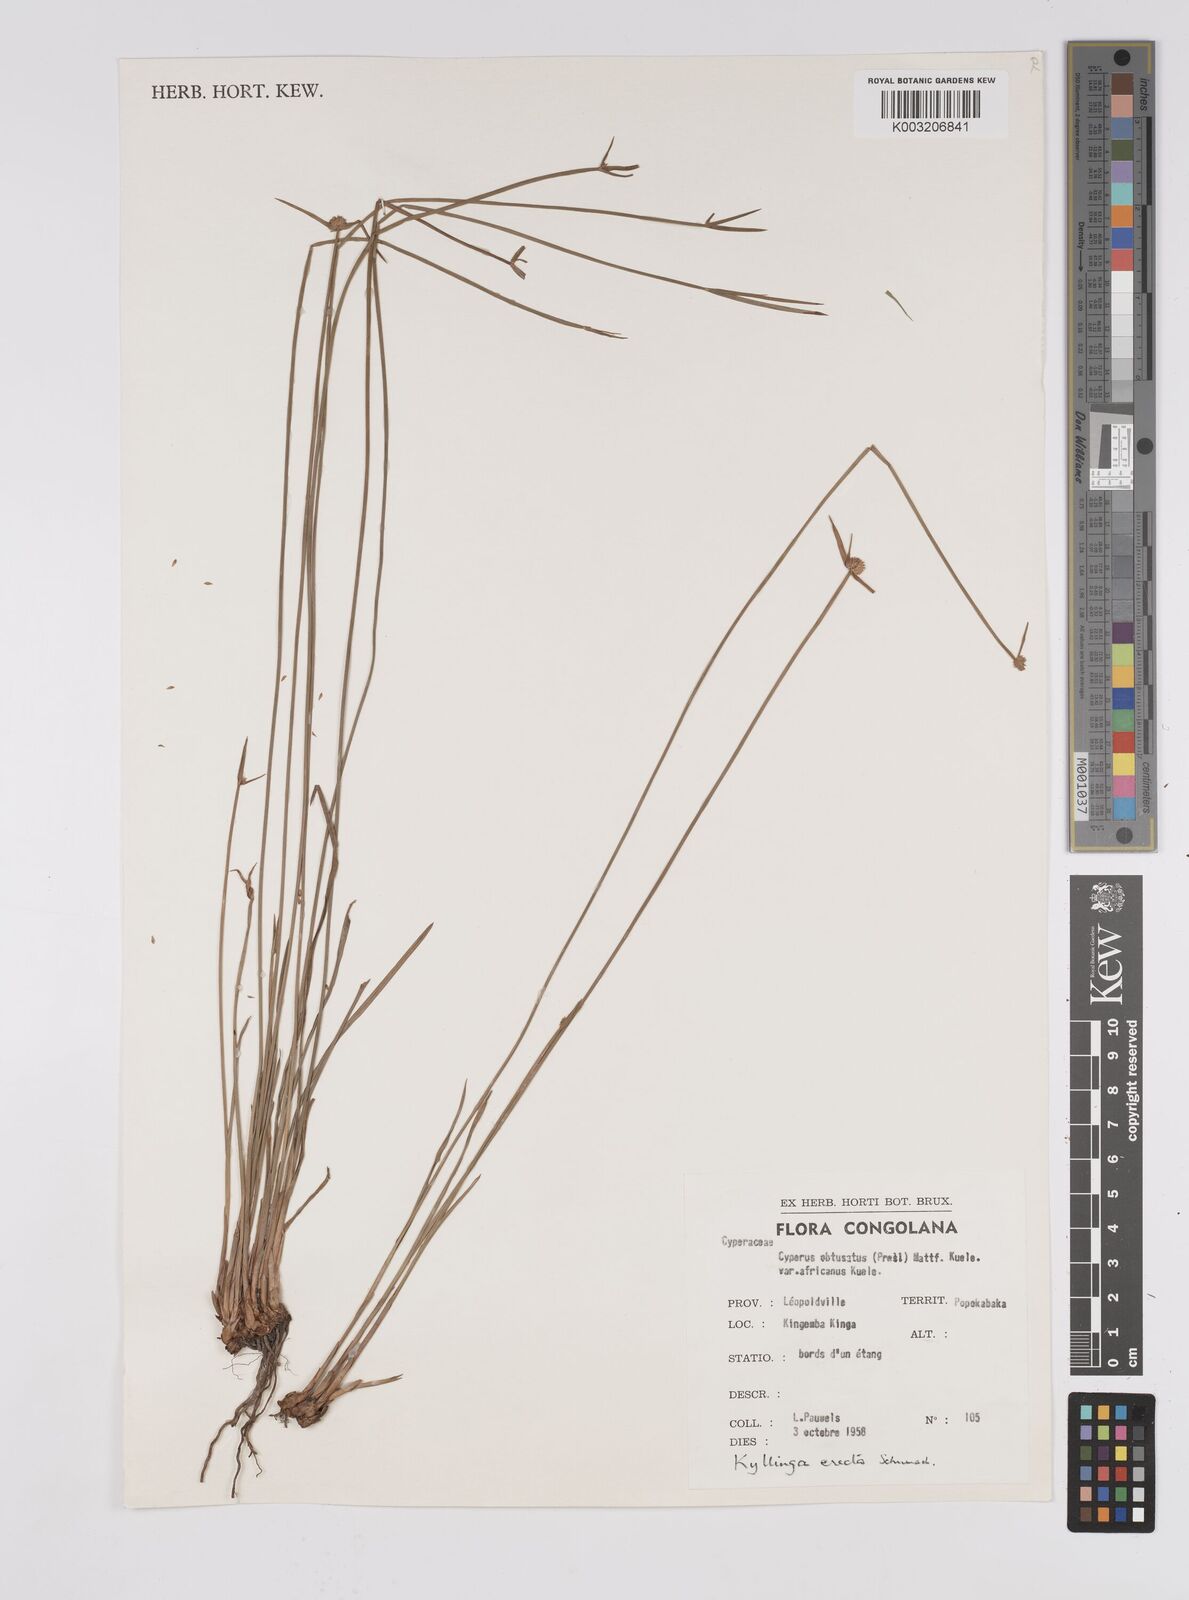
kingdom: Plantae
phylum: Tracheophyta
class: Liliopsida
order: Poales
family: Cyperaceae
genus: Cyperus
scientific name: Cyperus erectus
